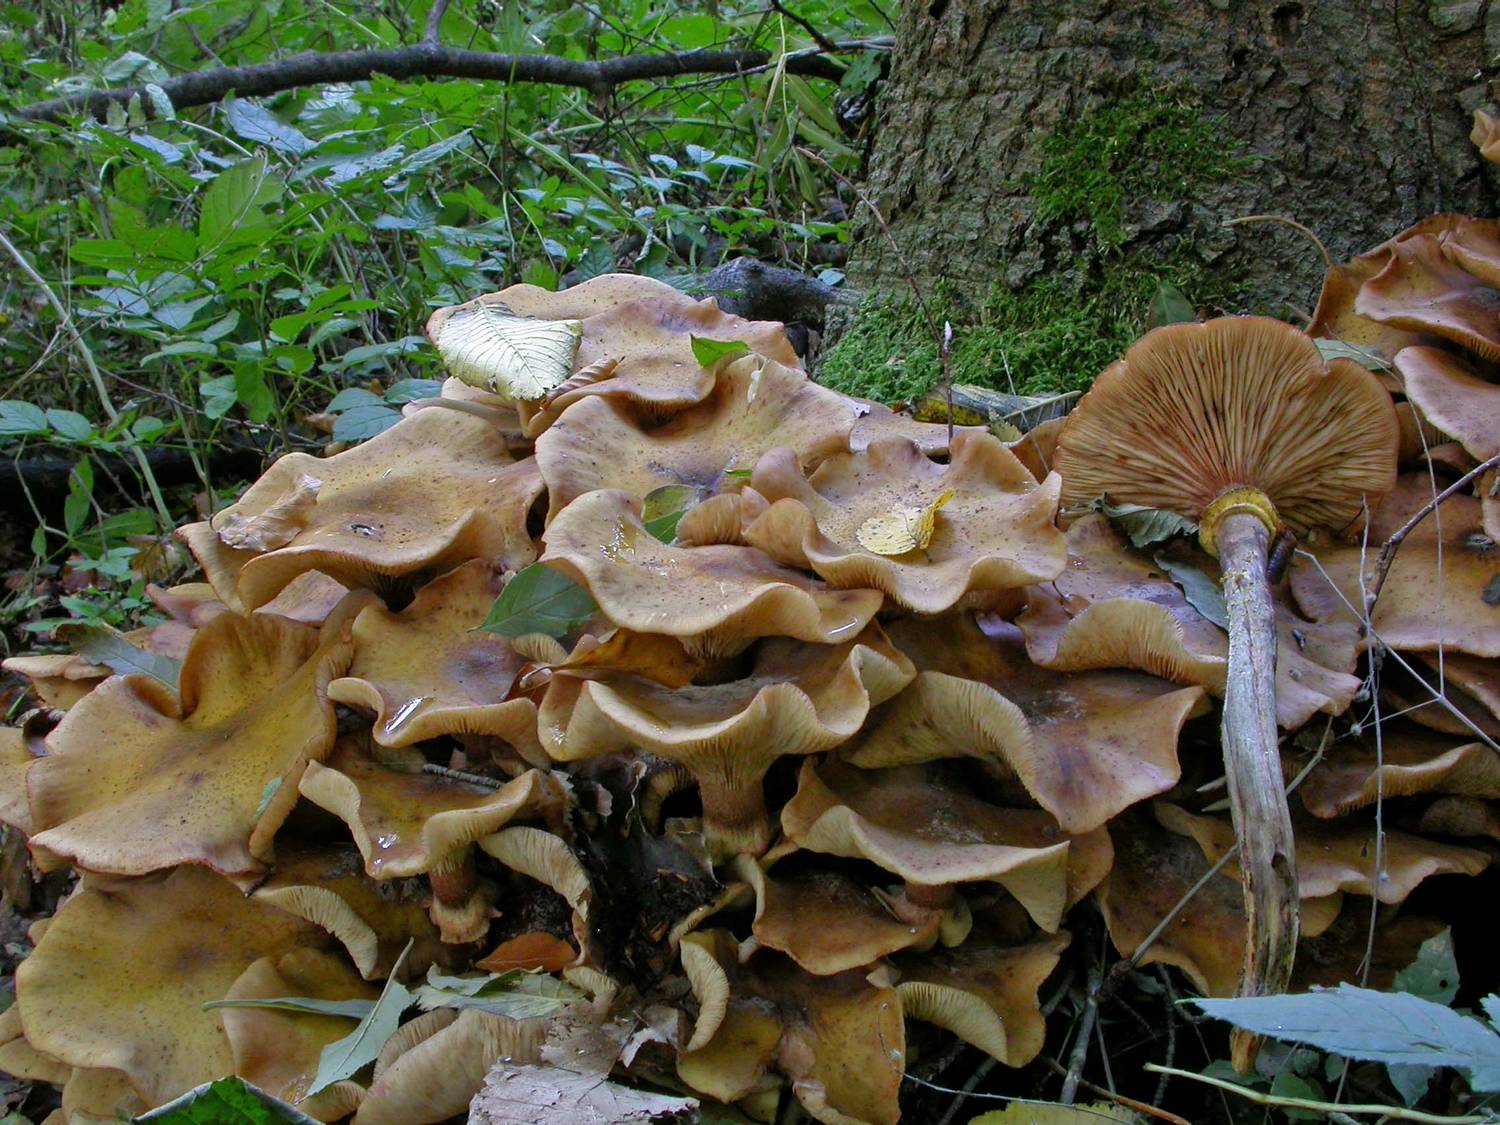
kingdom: Fungi
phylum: Basidiomycota
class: Agaricomycetes
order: Agaricales
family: Physalacriaceae
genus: Armillaria
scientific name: Armillaria mellea
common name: ægte honningsvamp
